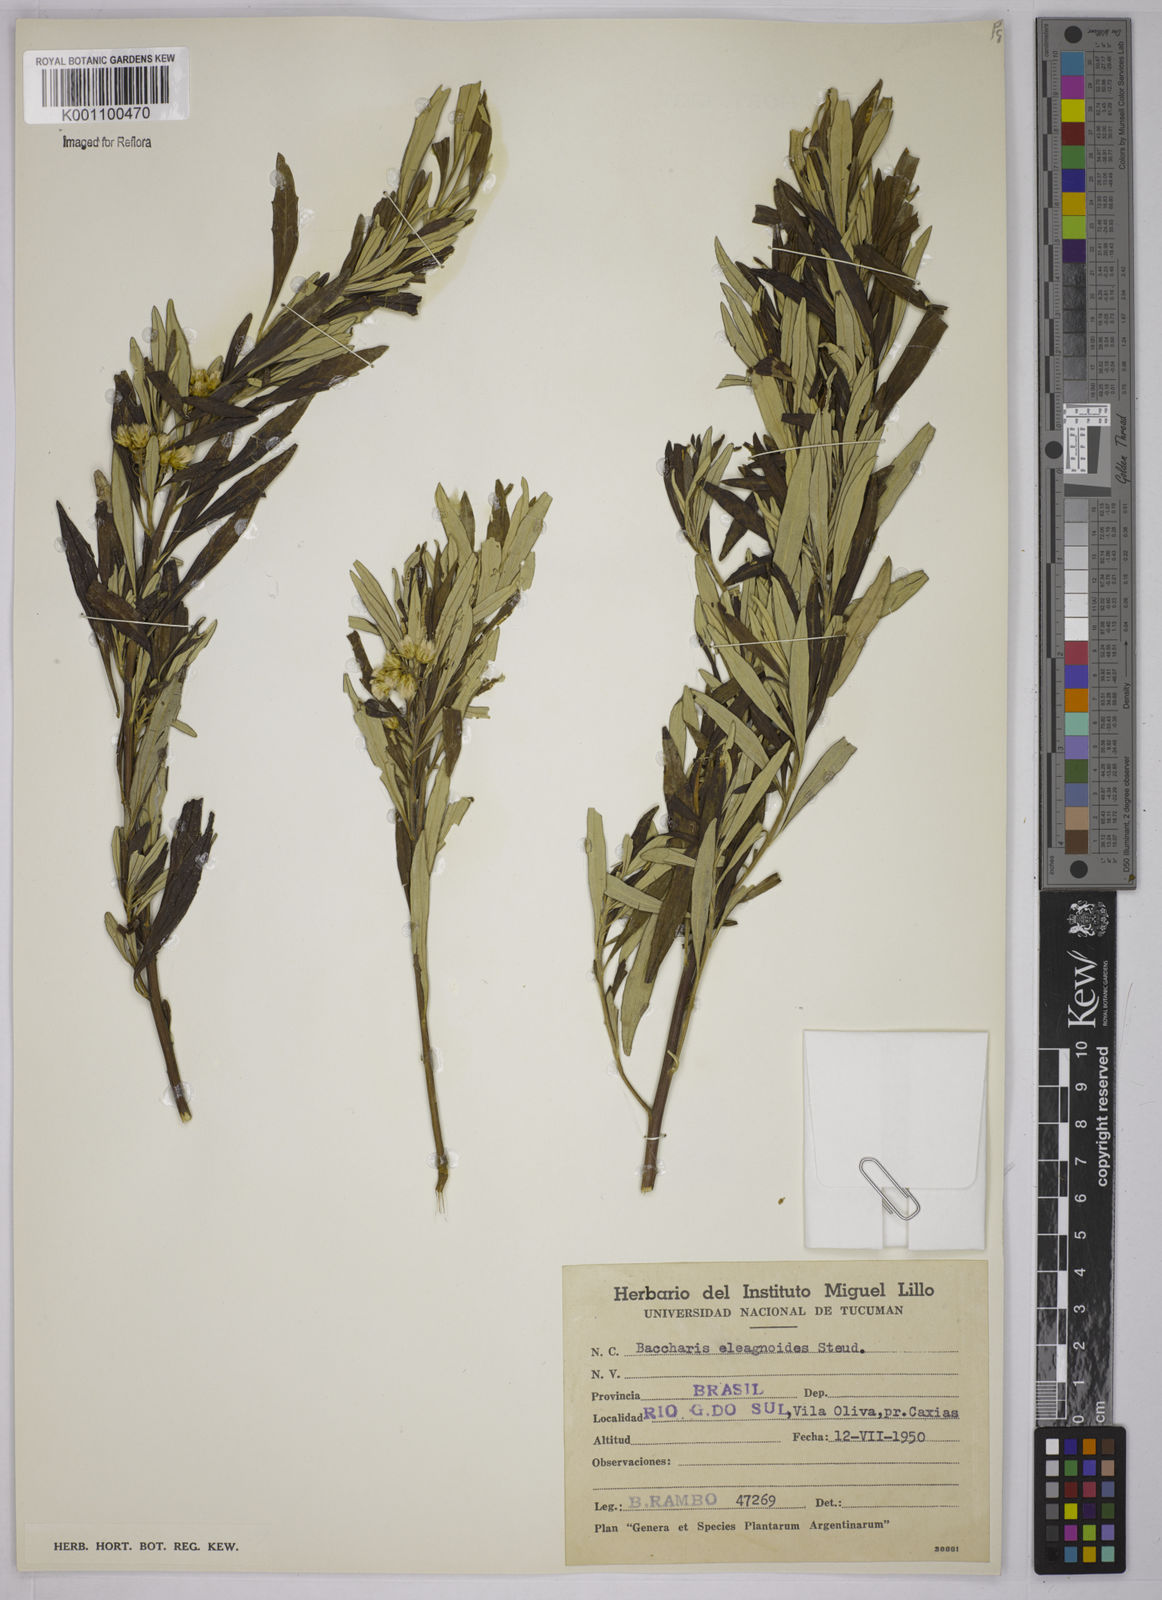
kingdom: Plantae
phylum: Tracheophyta
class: Magnoliopsida
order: Asterales
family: Asteraceae
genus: Baccharis
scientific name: Baccharis
